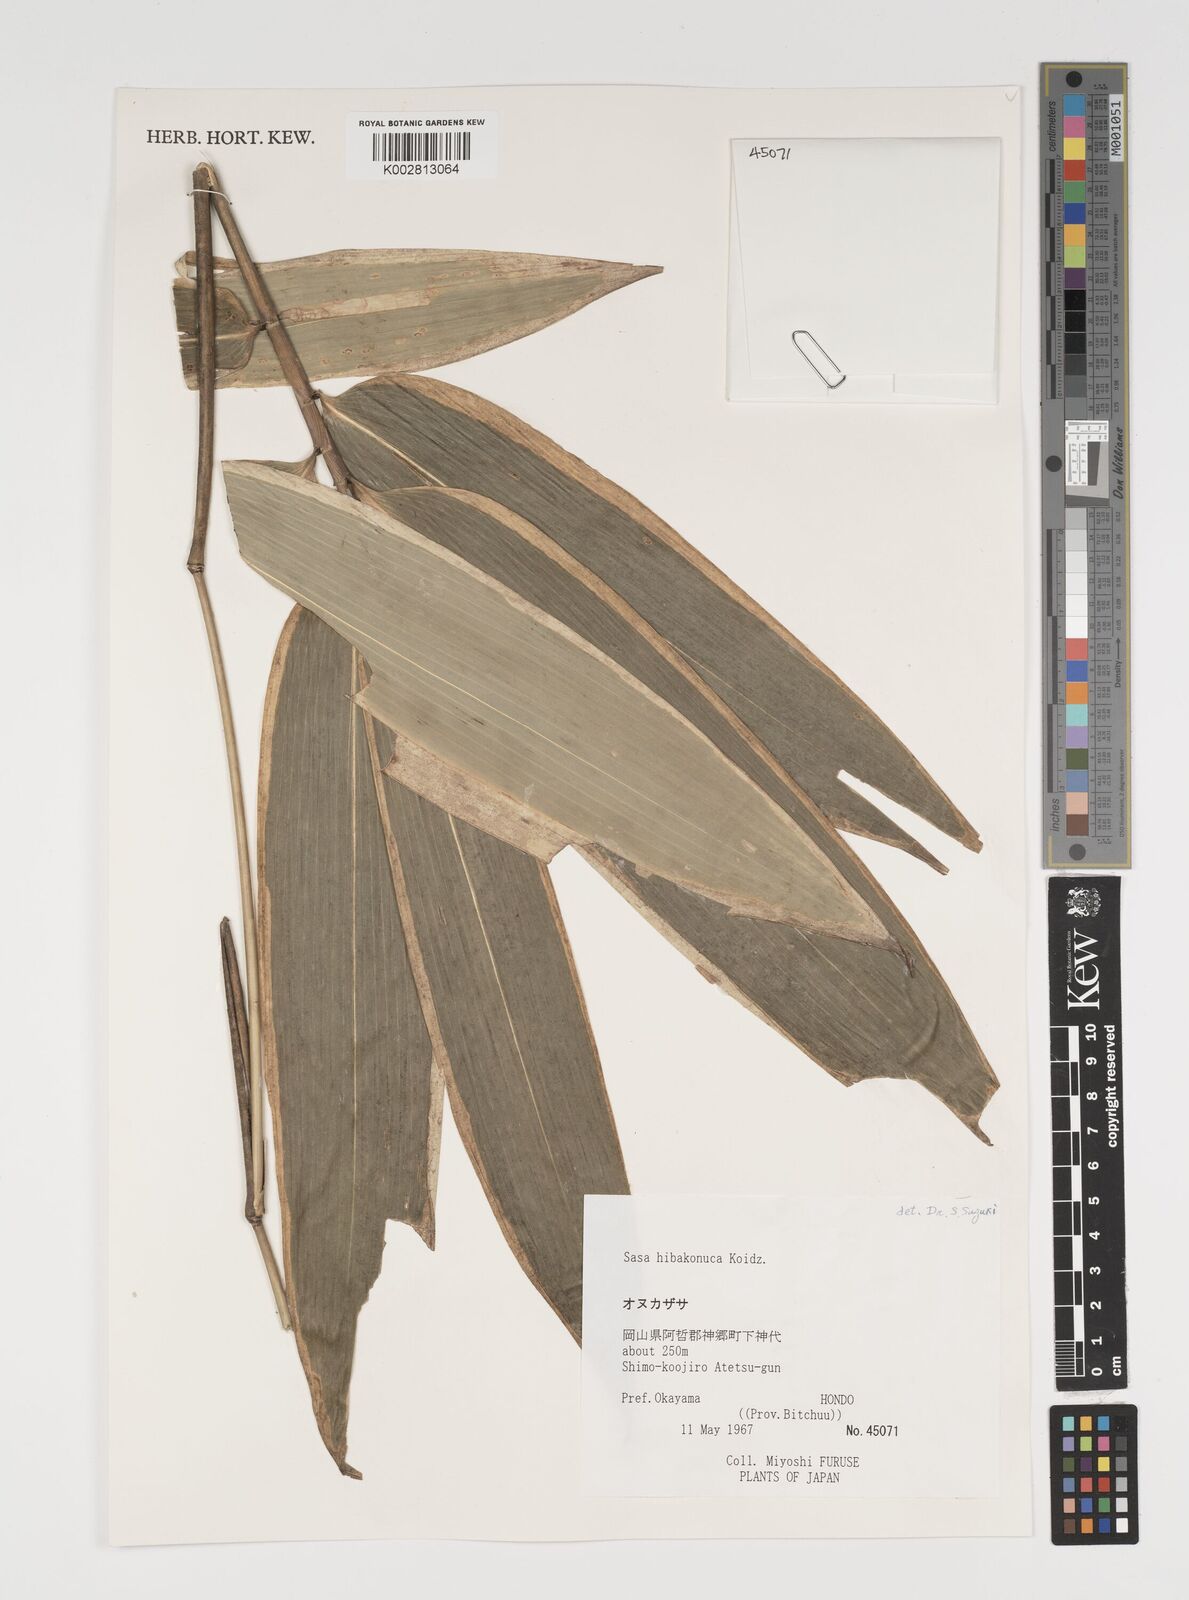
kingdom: Plantae
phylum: Tracheophyta
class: Liliopsida
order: Poales
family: Poaceae
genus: Sasa
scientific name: Sasa hibaconuca
